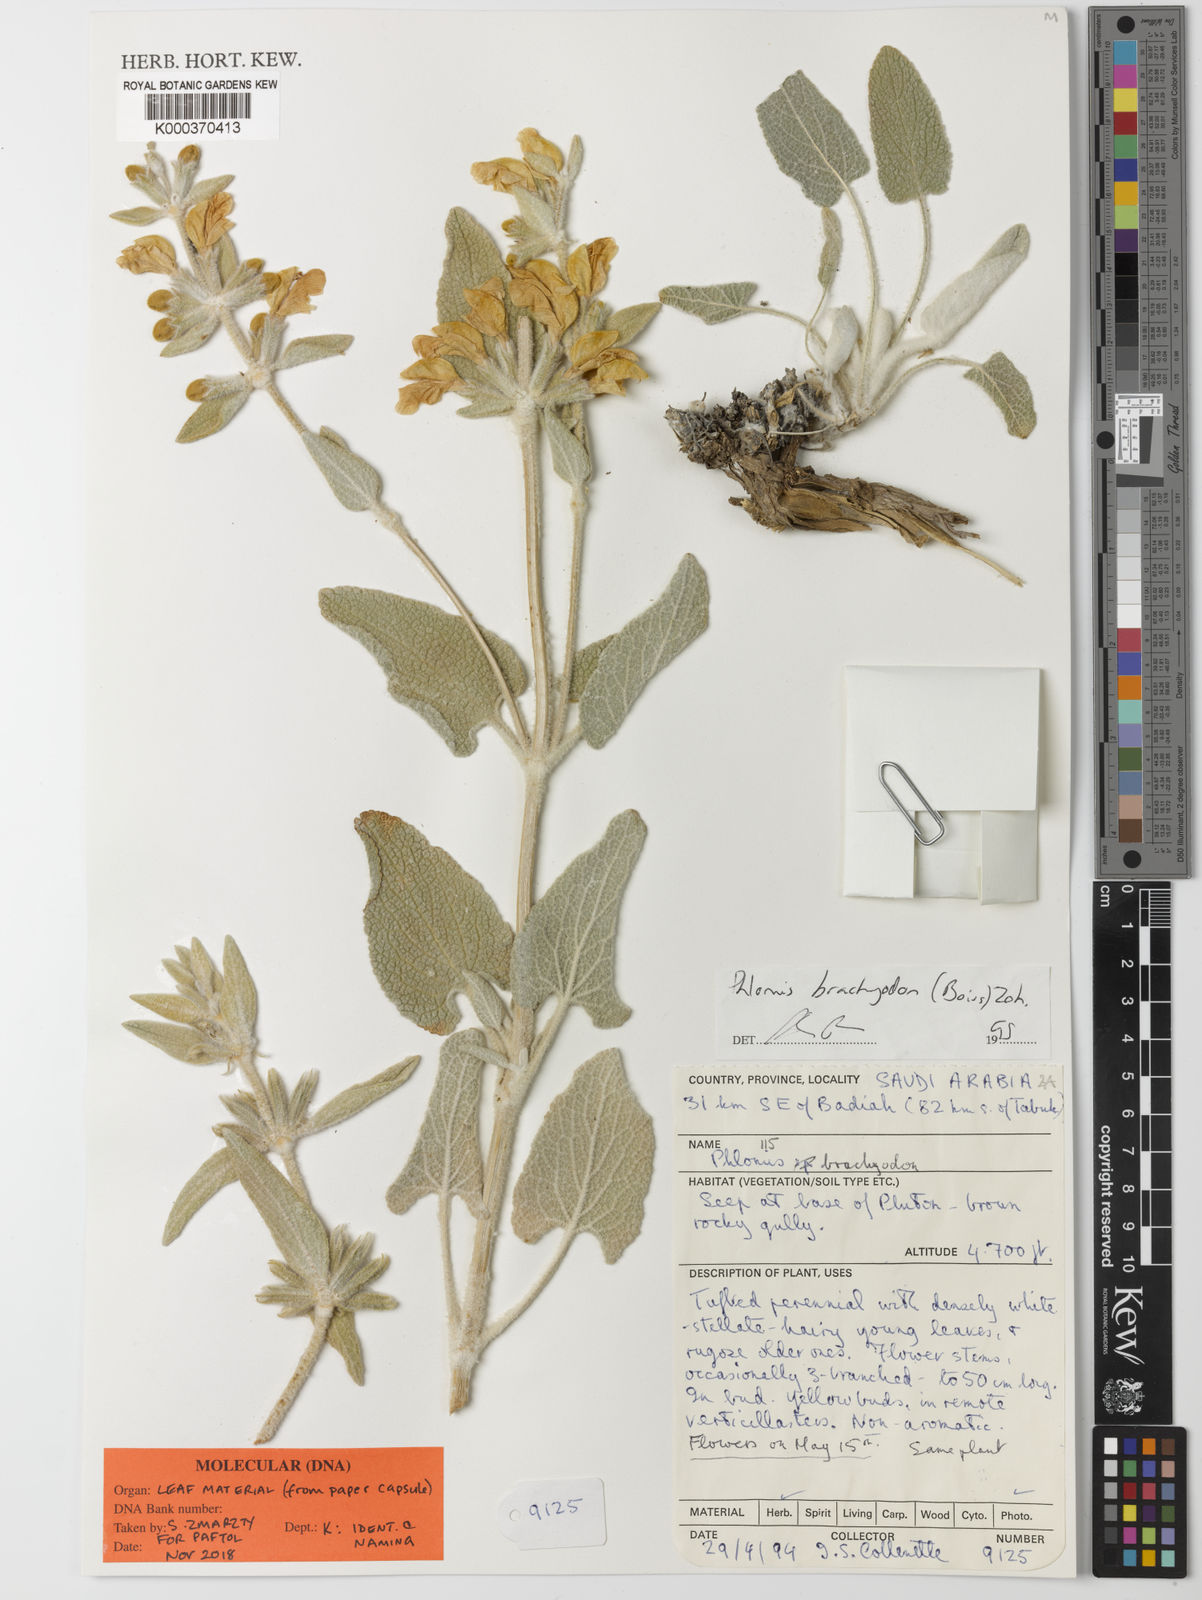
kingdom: Plantae
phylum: Tracheophyta
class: Magnoliopsida
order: Lamiales
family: Lamiaceae
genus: Phlomis
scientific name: Phlomis brachyodon
